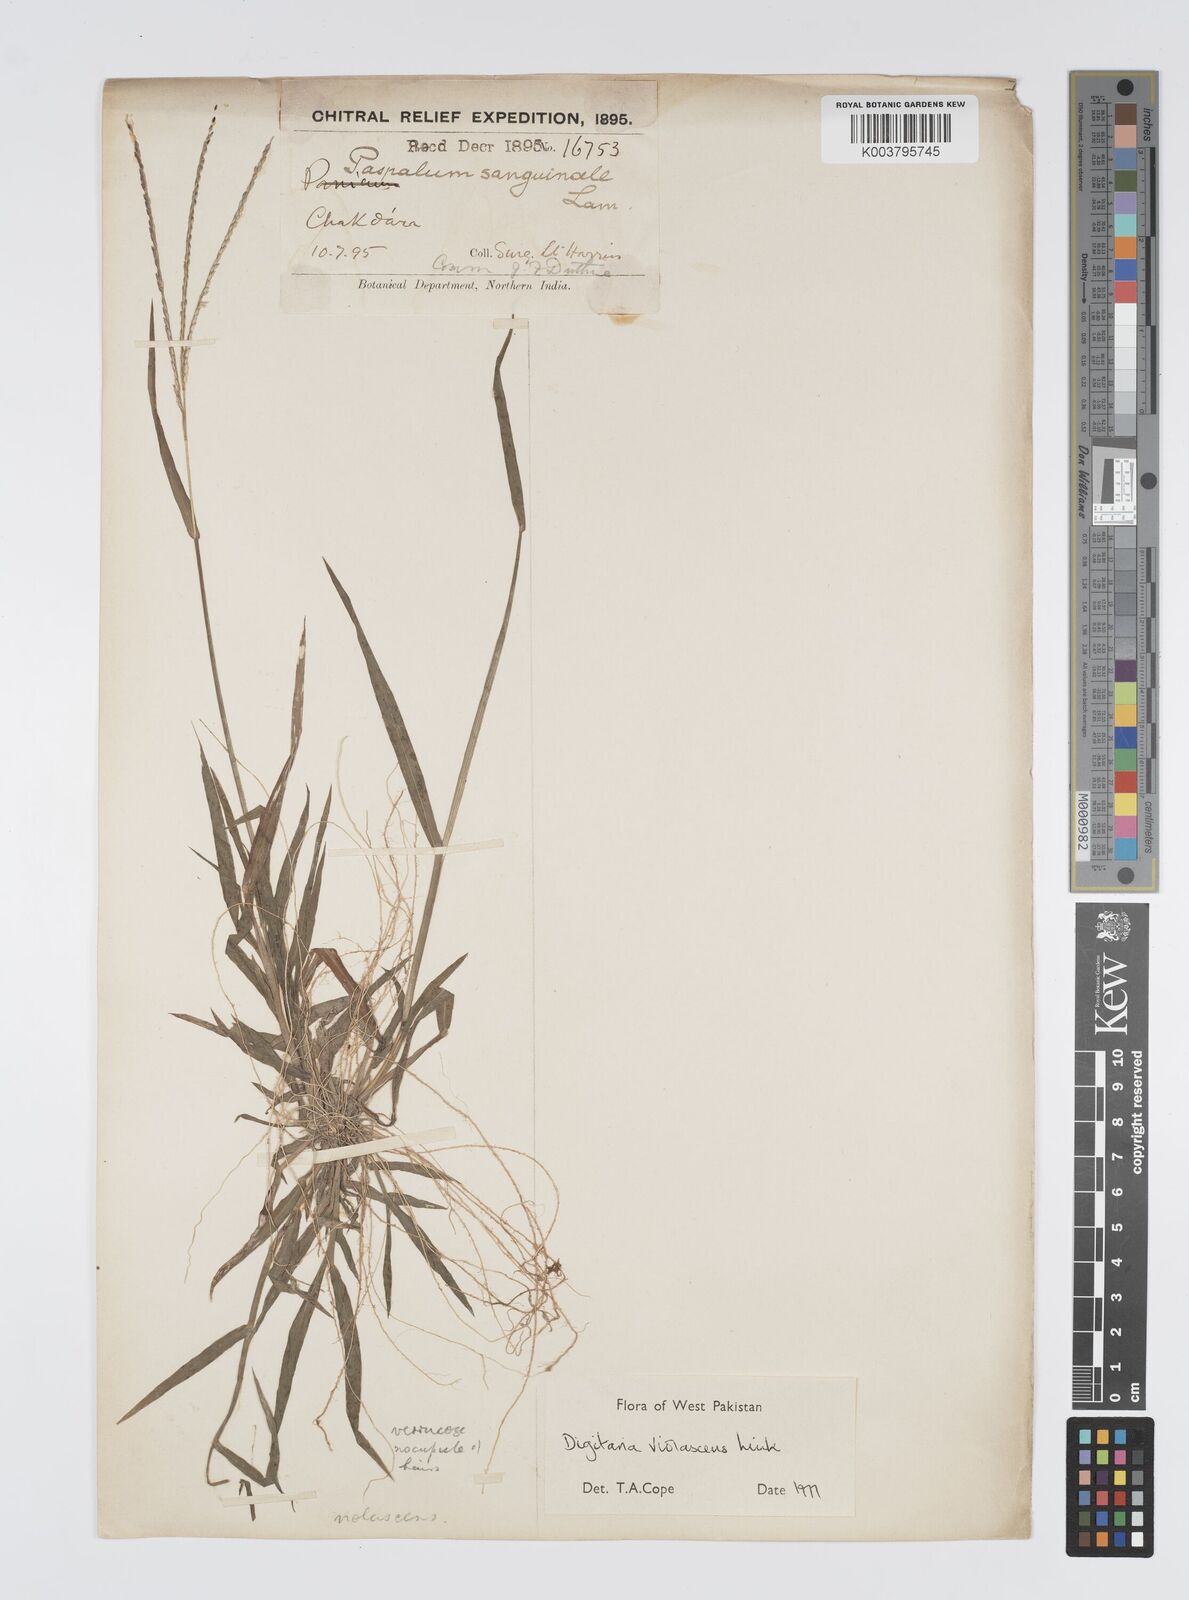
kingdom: Plantae
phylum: Tracheophyta
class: Liliopsida
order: Poales
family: Poaceae
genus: Digitaria
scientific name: Digitaria violascens
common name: Violet crabgrass
